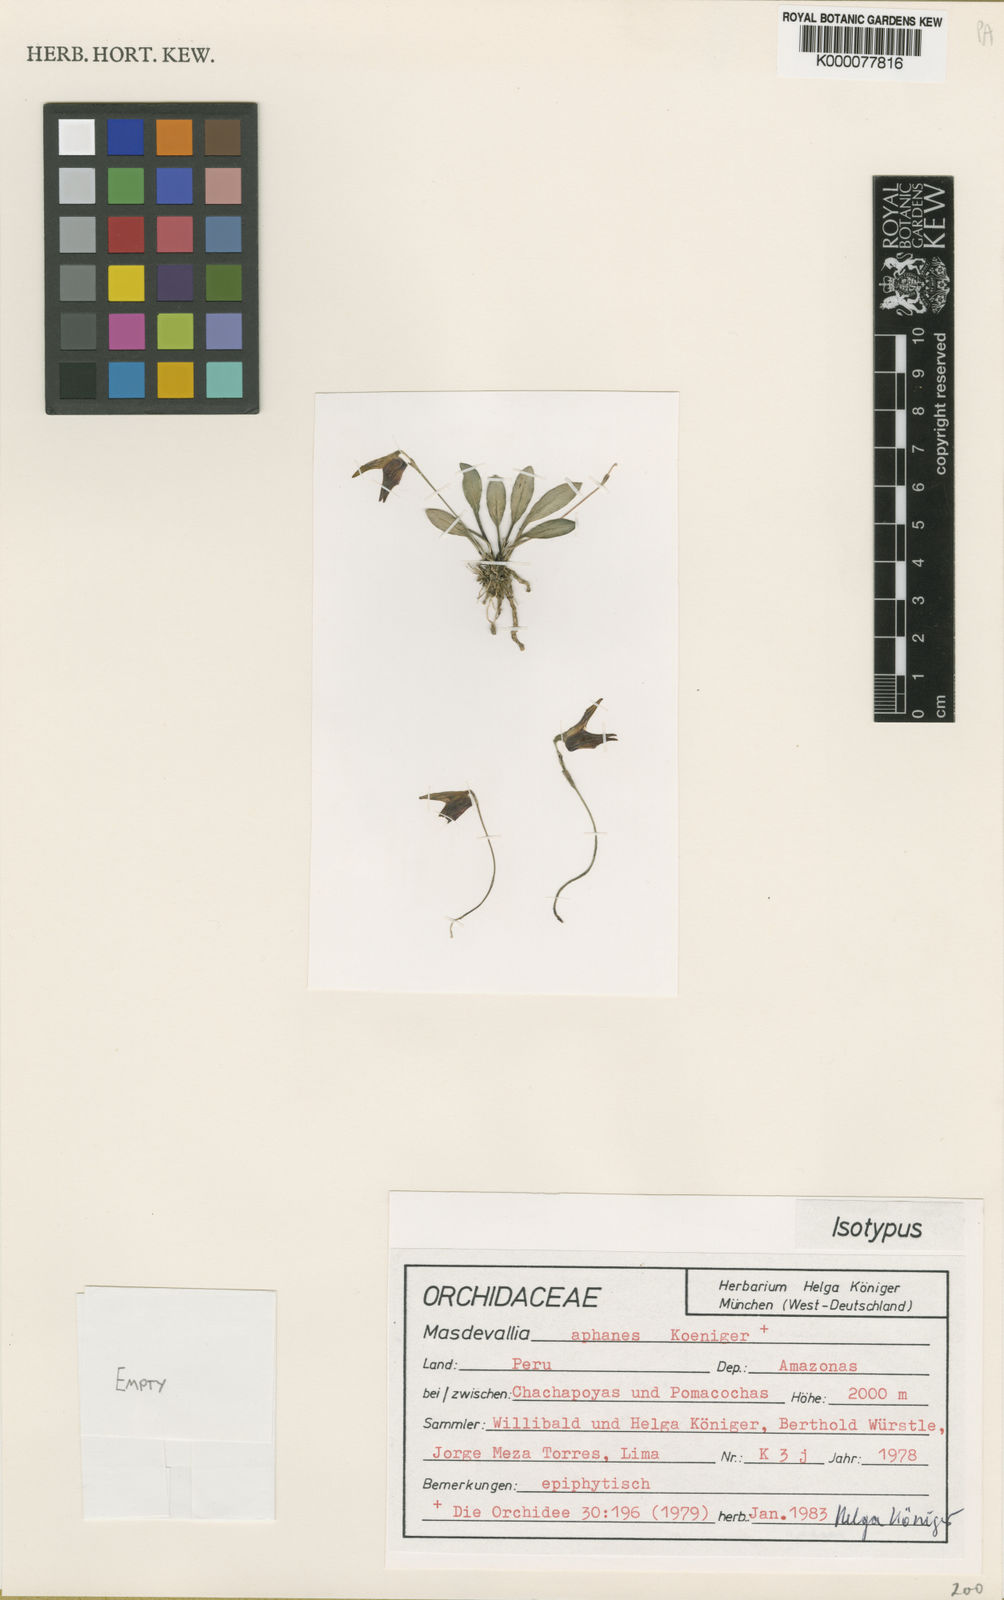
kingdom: Plantae
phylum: Tracheophyta
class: Liliopsida
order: Asparagales
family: Orchidaceae
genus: Masdevallia
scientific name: Masdevallia
